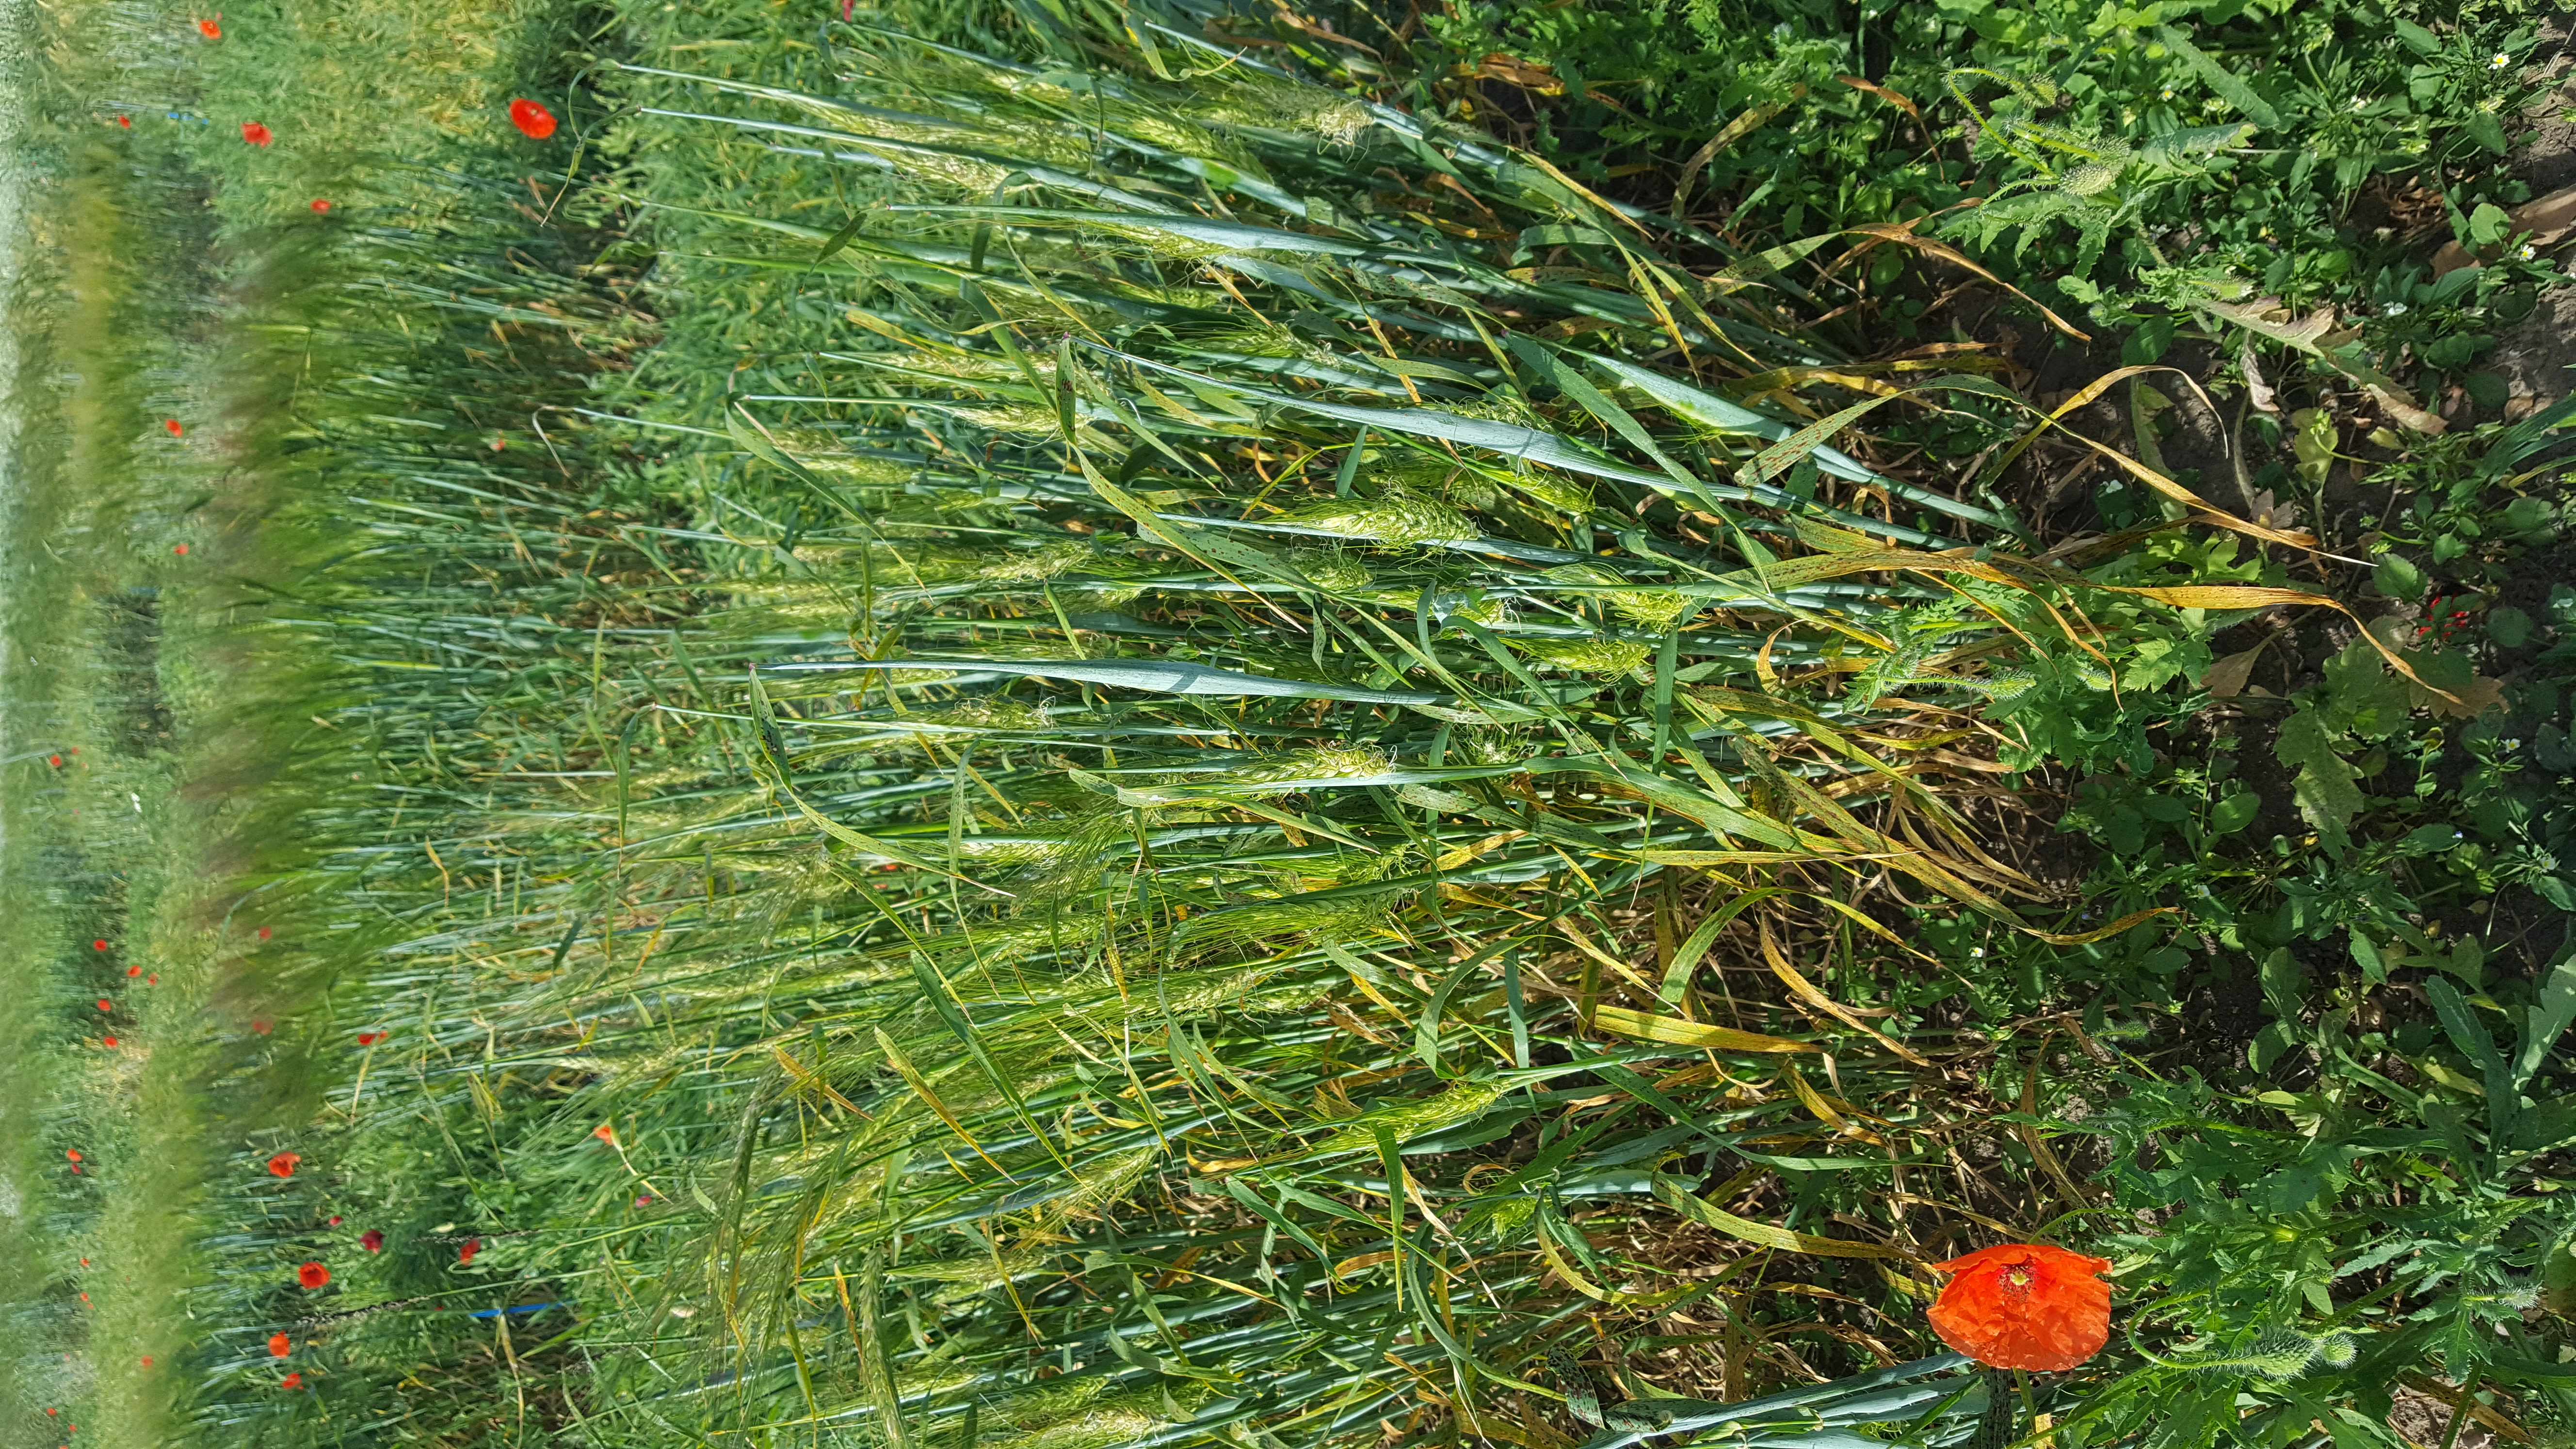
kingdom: Plantae
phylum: Tracheophyta
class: Liliopsida
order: Poales
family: Poaceae
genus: Hordeum
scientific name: Hordeum vulgare
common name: Common barley
